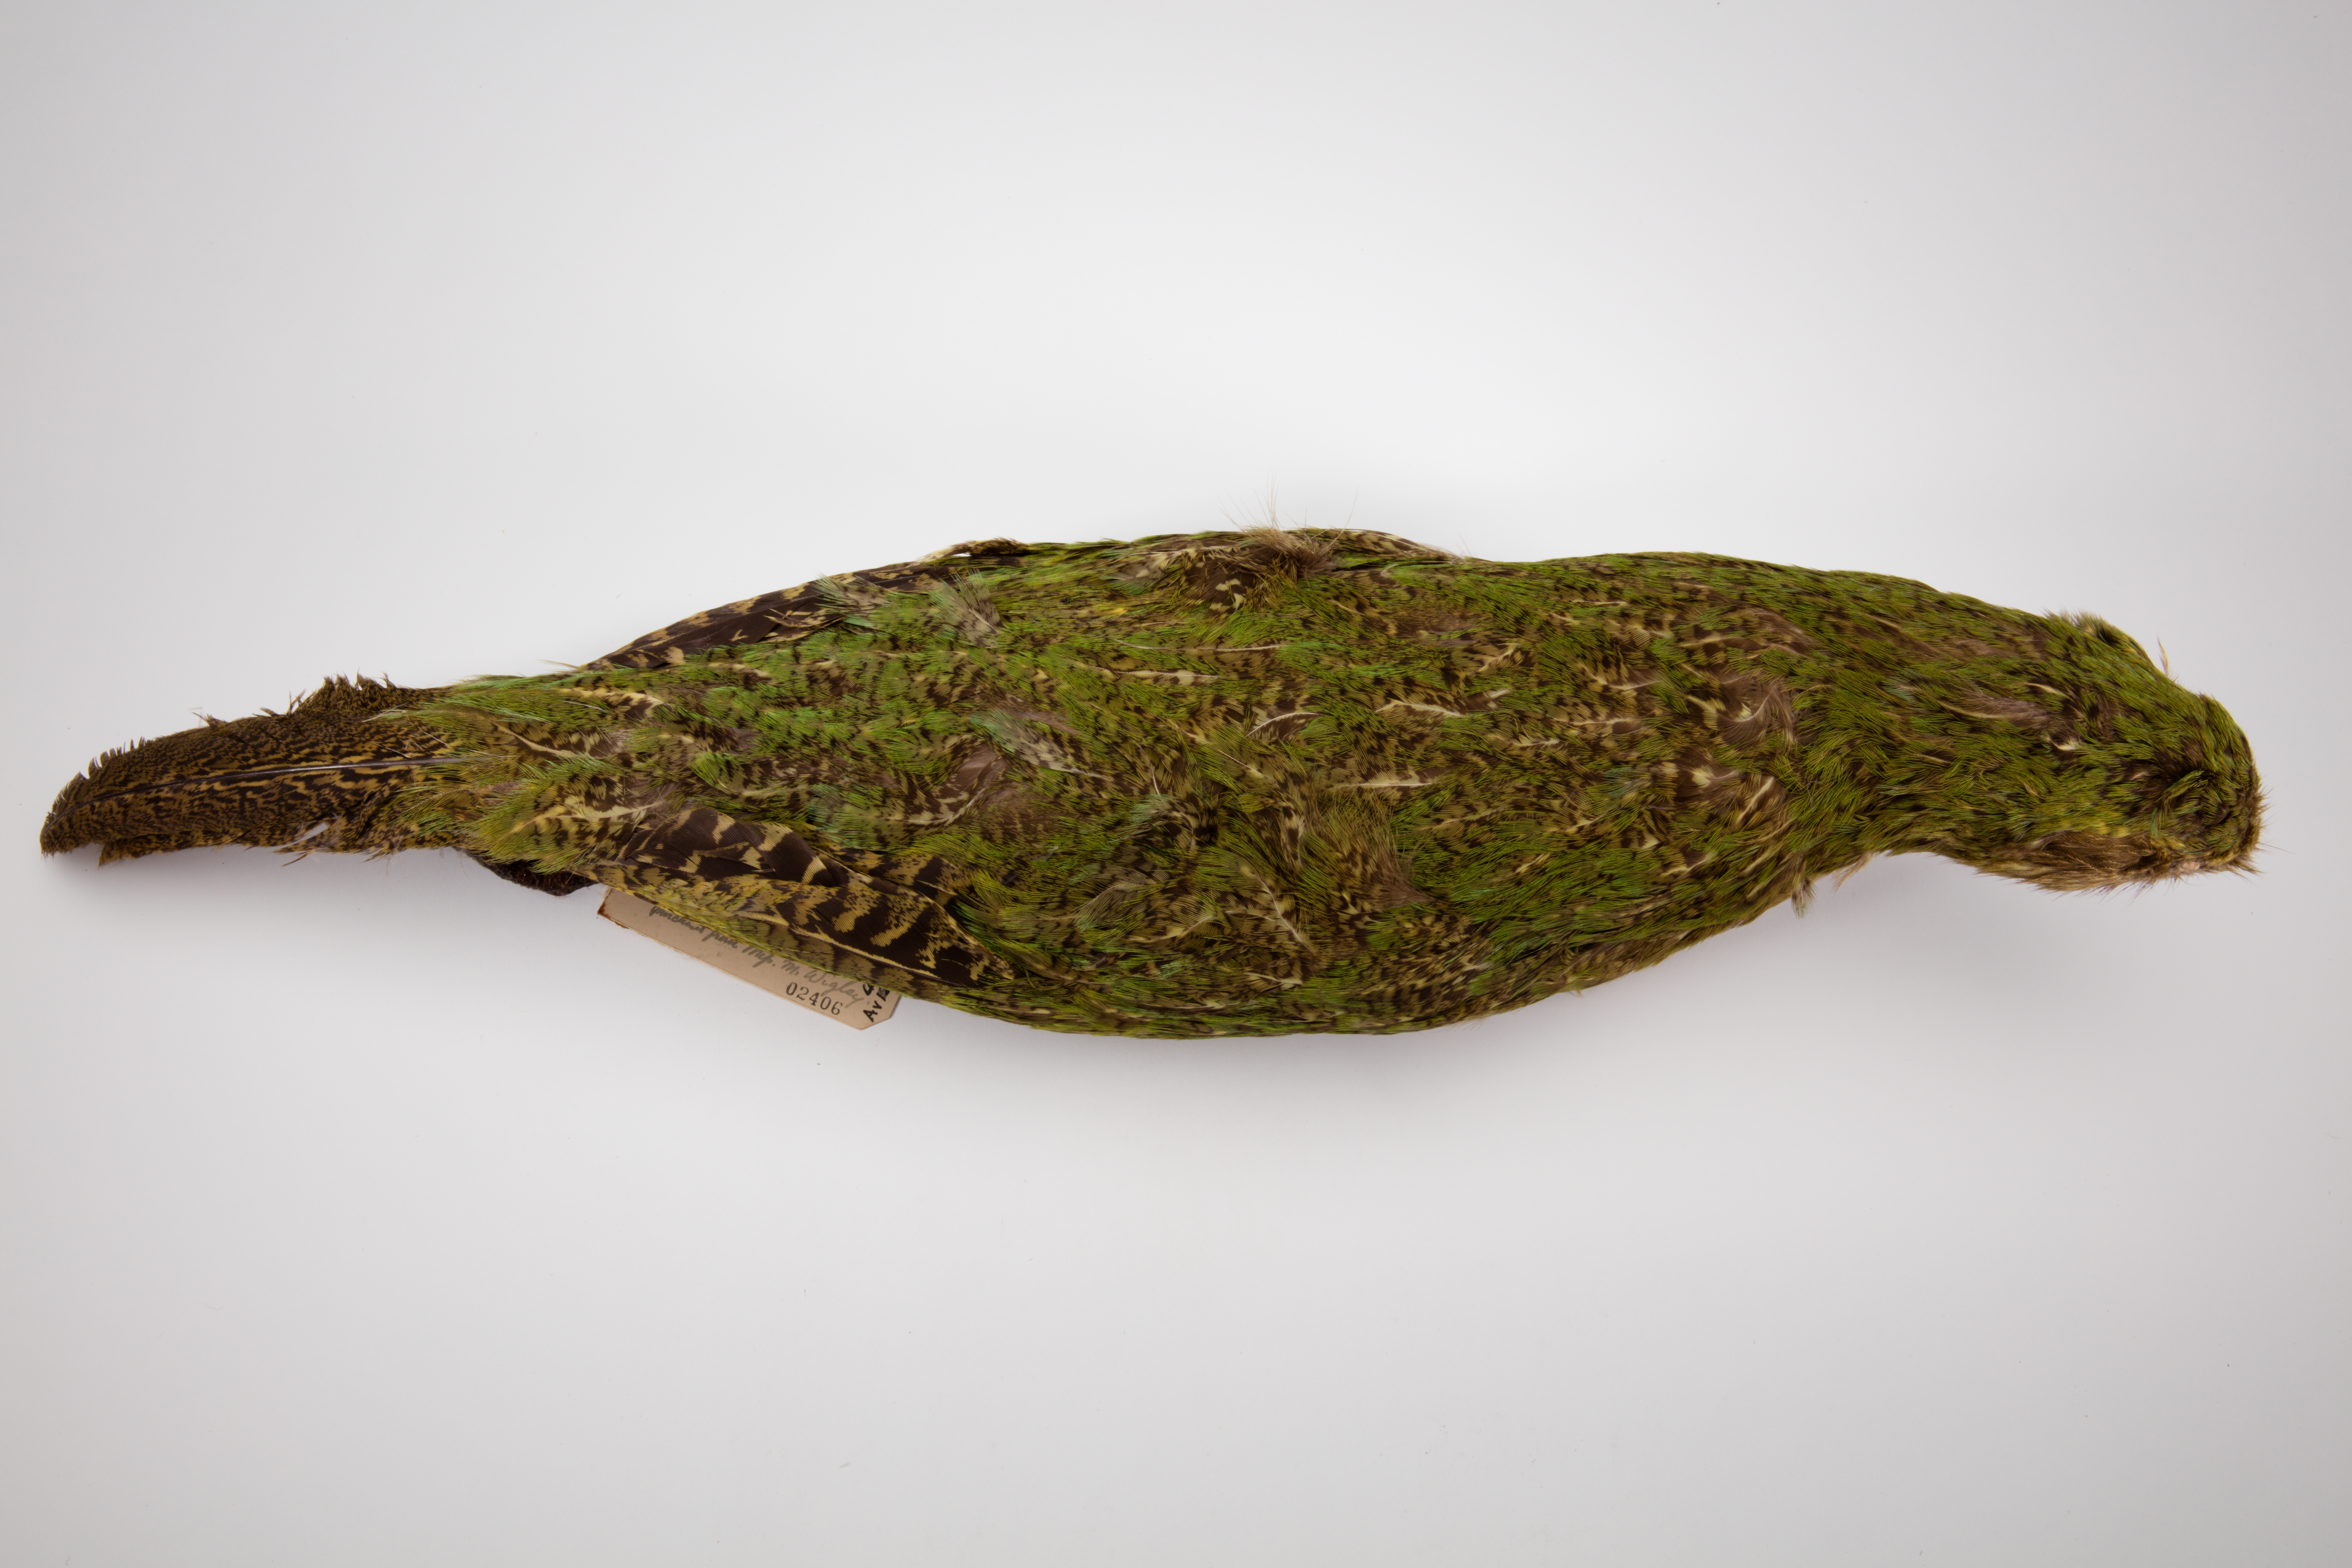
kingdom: Animalia
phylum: Chordata
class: Aves
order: Psittaciformes
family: Psittacidae
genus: Strigops
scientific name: Strigops habroptila
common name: Kakapo
